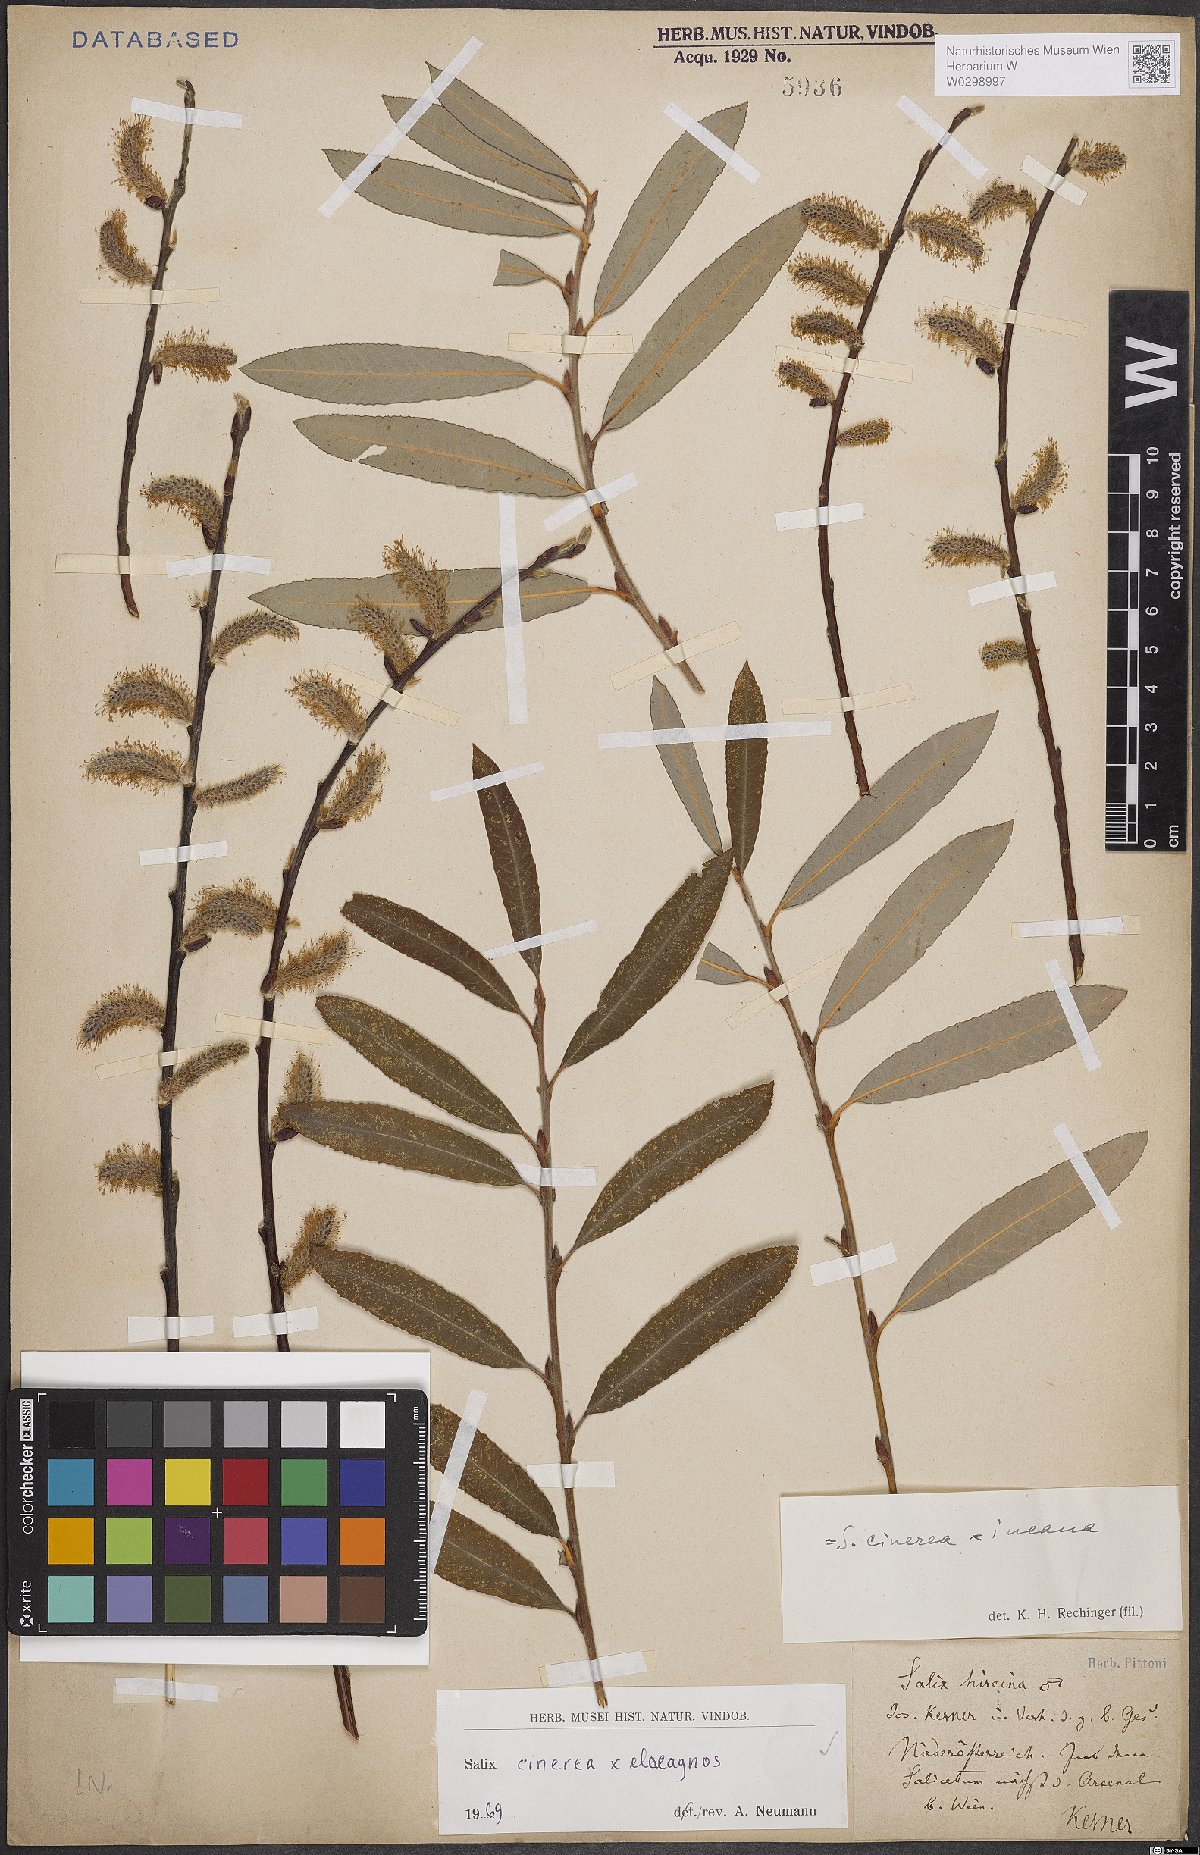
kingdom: Plantae
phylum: Tracheophyta
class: Magnoliopsida
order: Malpighiales
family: Salicaceae
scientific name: Salicaceae
